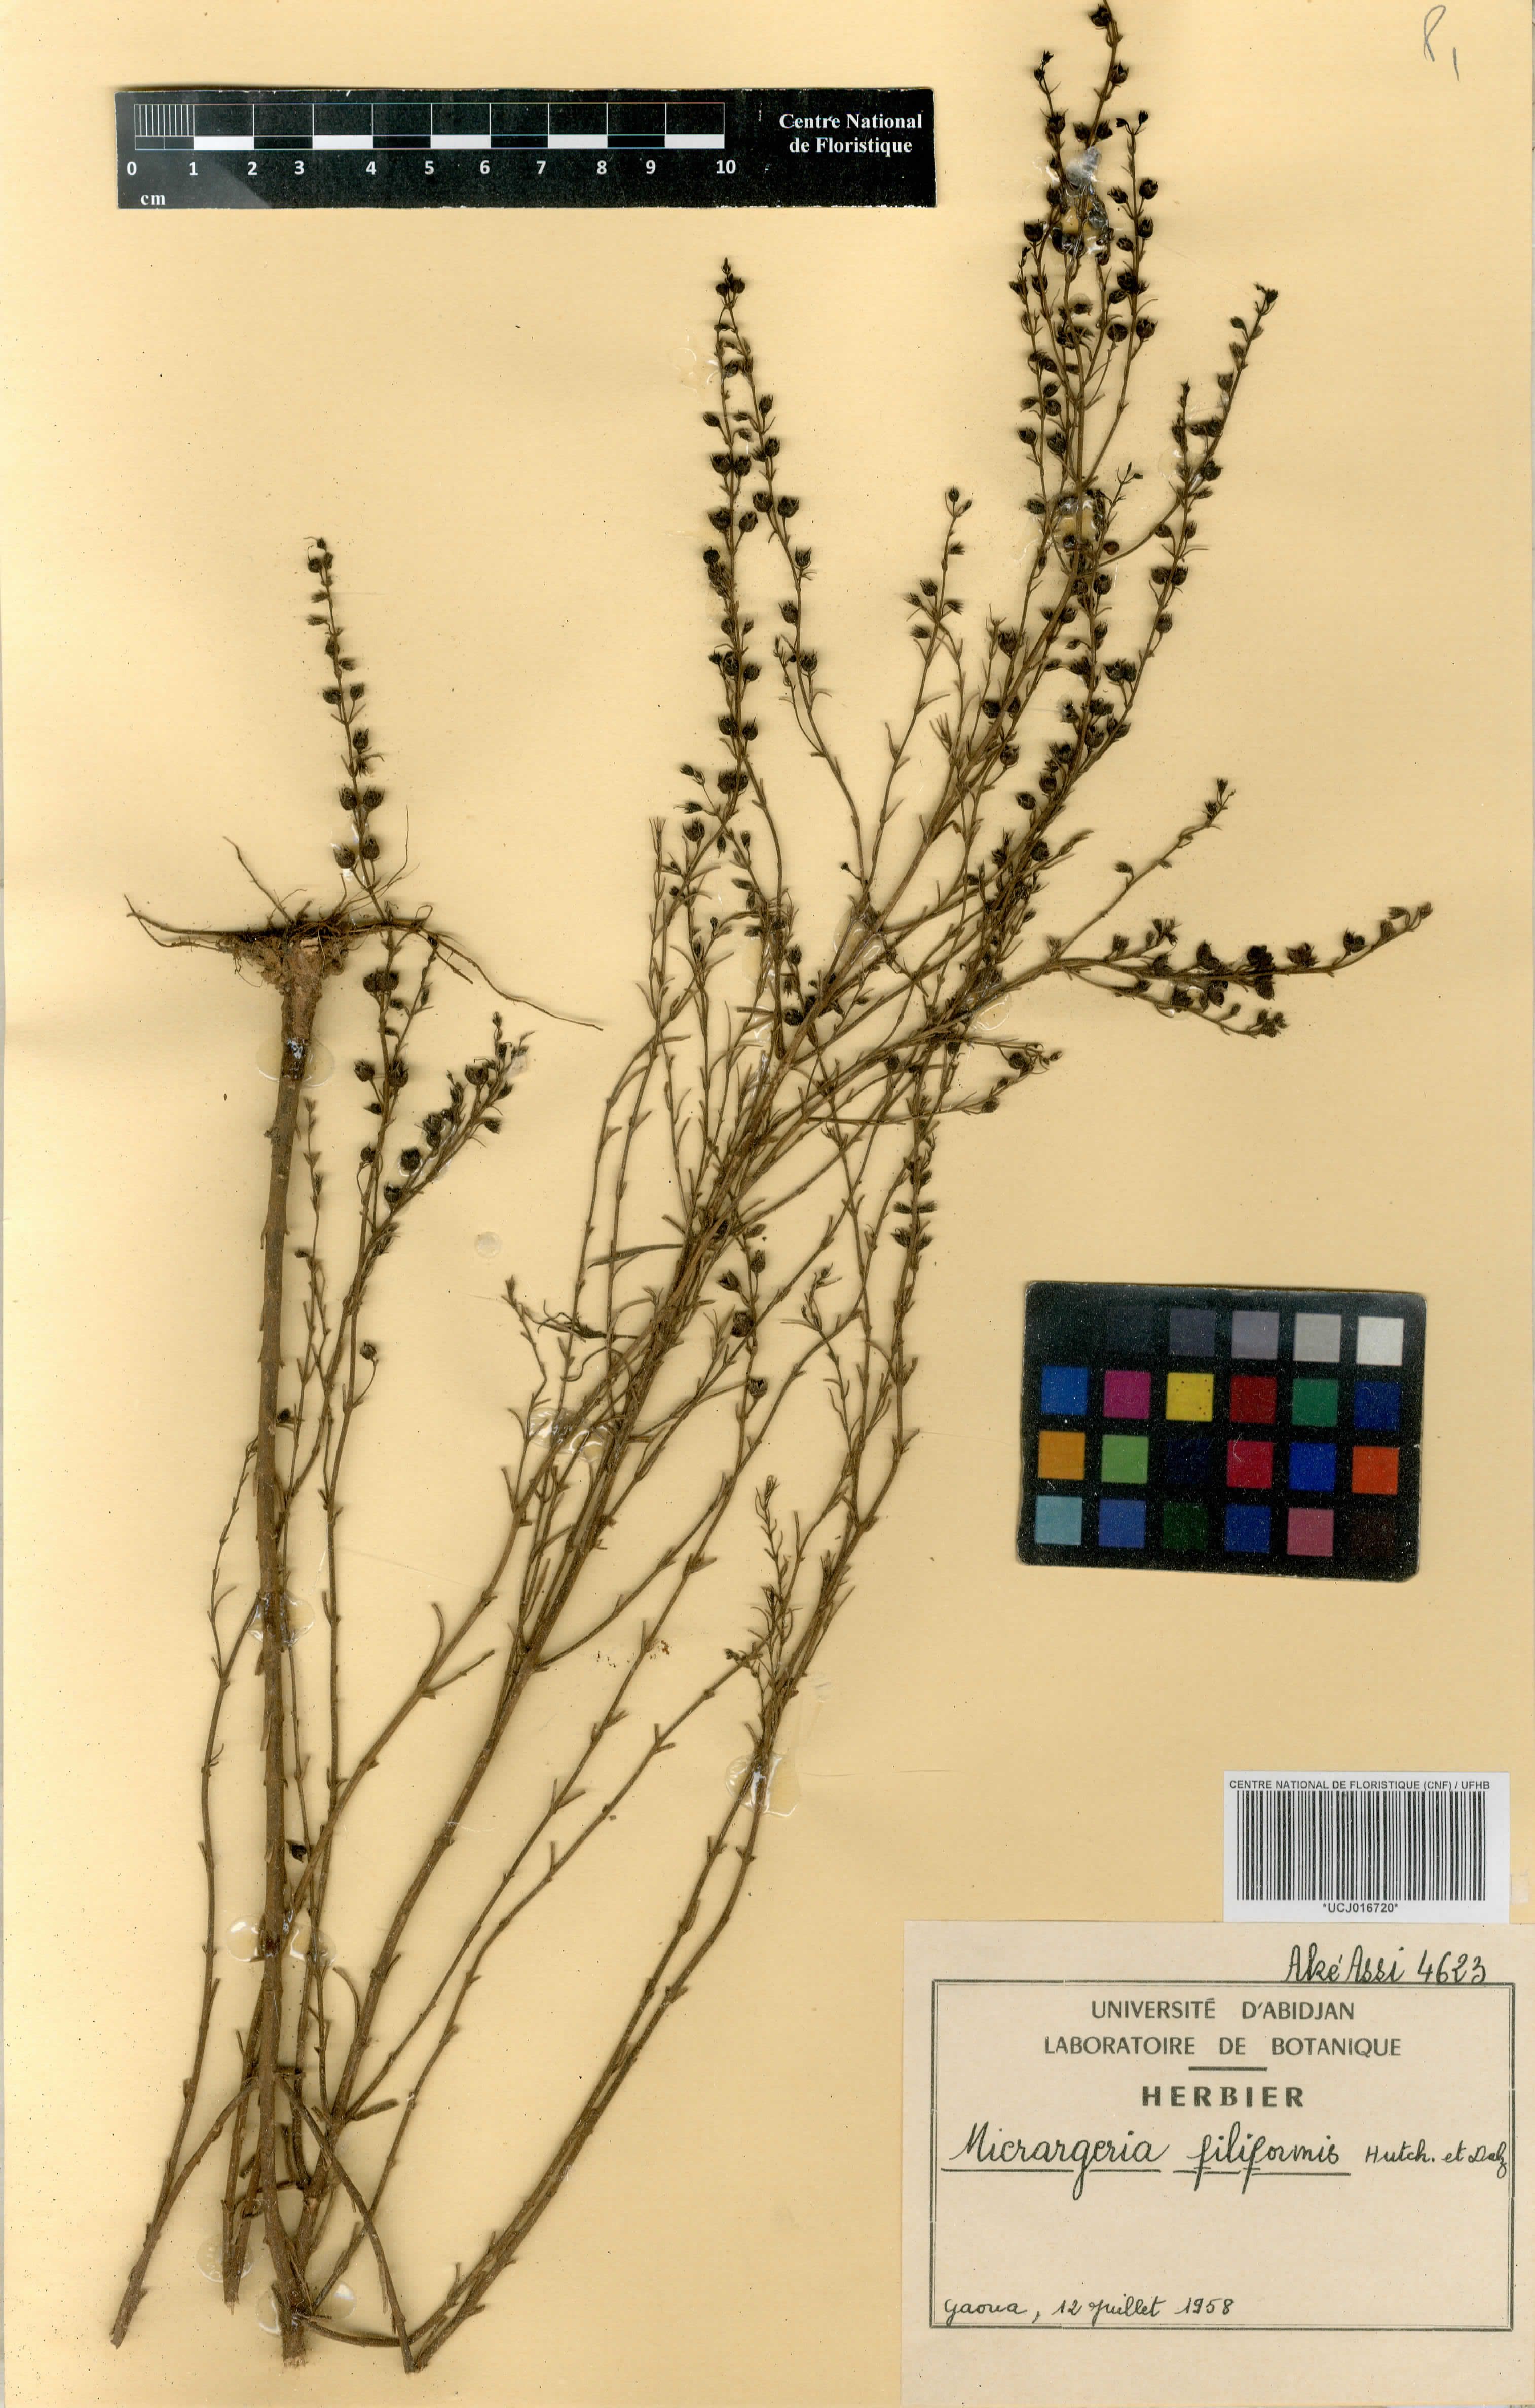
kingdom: Plantae
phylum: Tracheophyta
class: Magnoliopsida
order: Lamiales
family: Orobanchaceae
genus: Micrargeria
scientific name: Micrargeria filiformis
